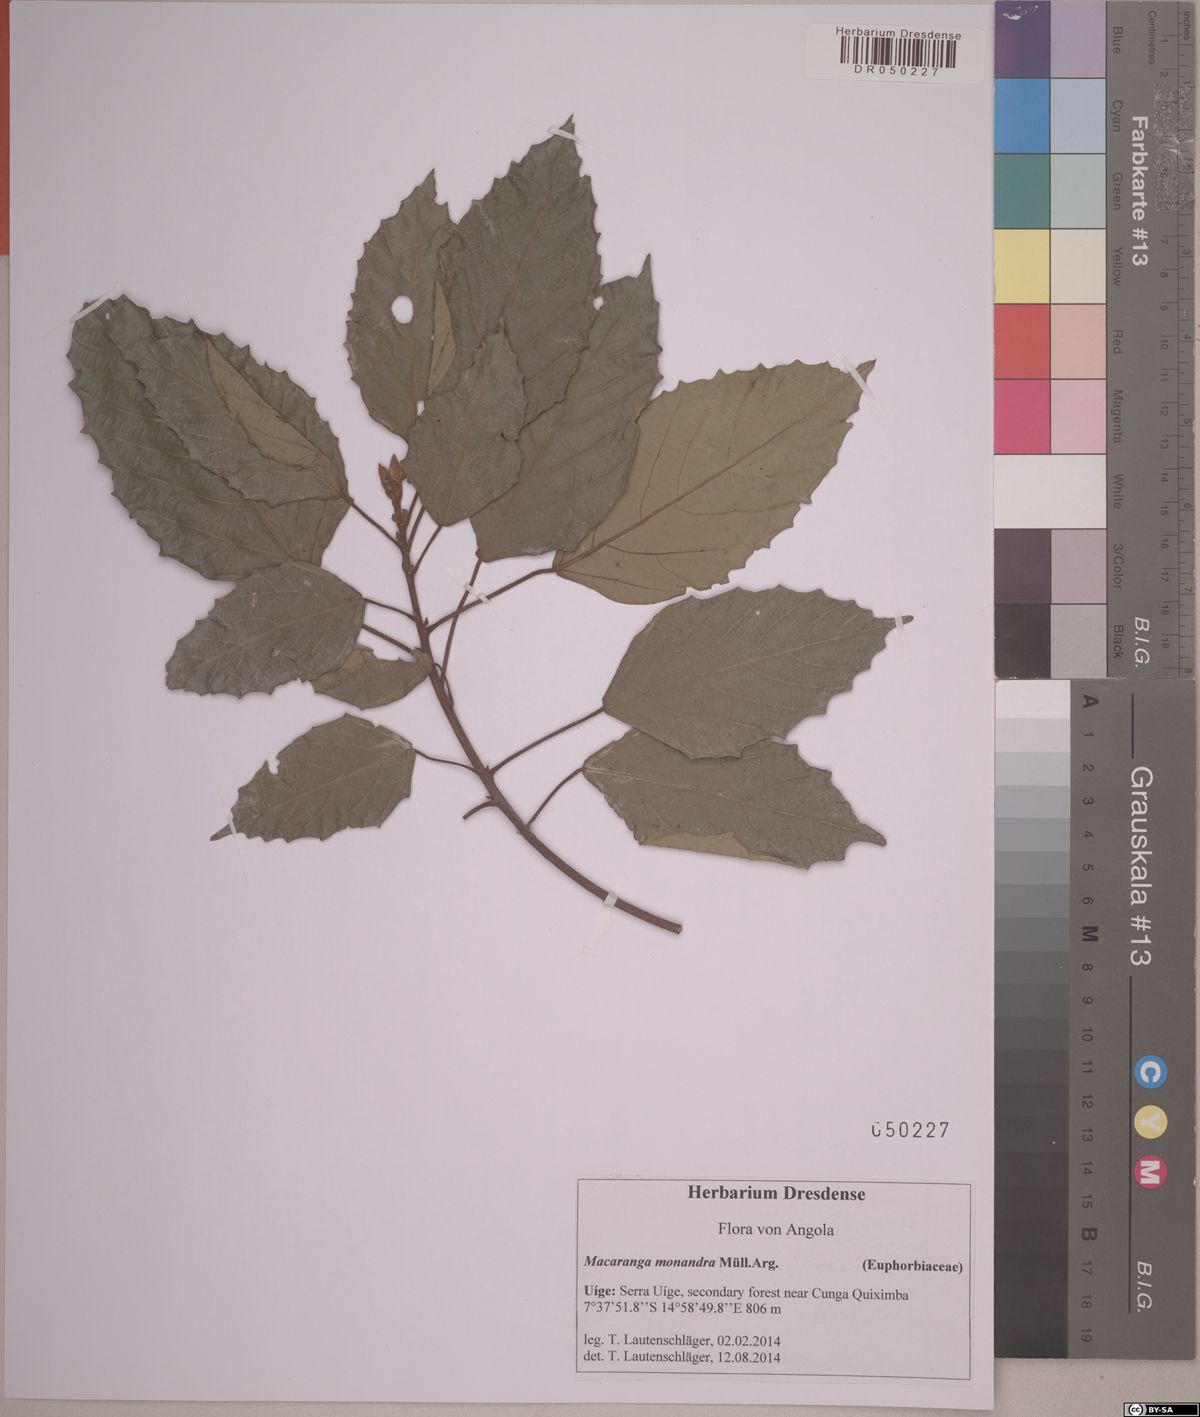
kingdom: Plantae
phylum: Tracheophyta
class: Magnoliopsida
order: Malpighiales
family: Euphorbiaceae
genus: Macaranga
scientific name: Macaranga monandra
